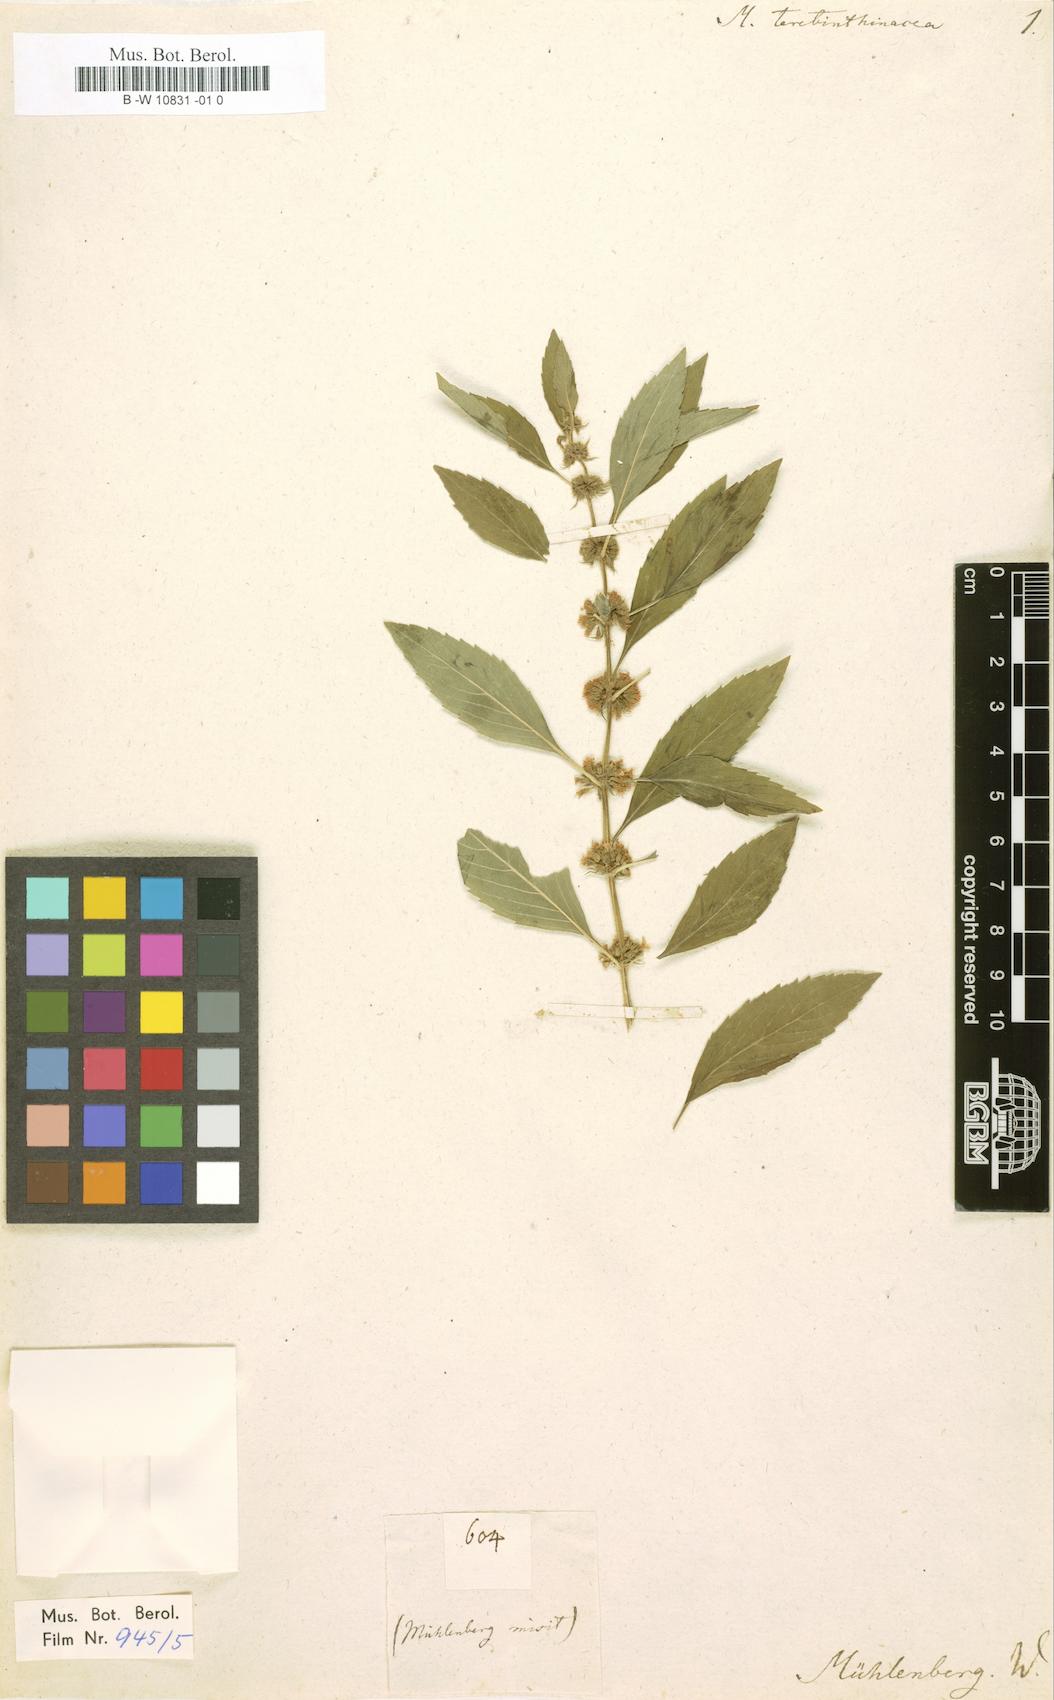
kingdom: Plantae
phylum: Tracheophyta
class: Magnoliopsida
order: Lamiales
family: Lamiaceae
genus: Mentha
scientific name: Mentha canadensis
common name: American corn mint
